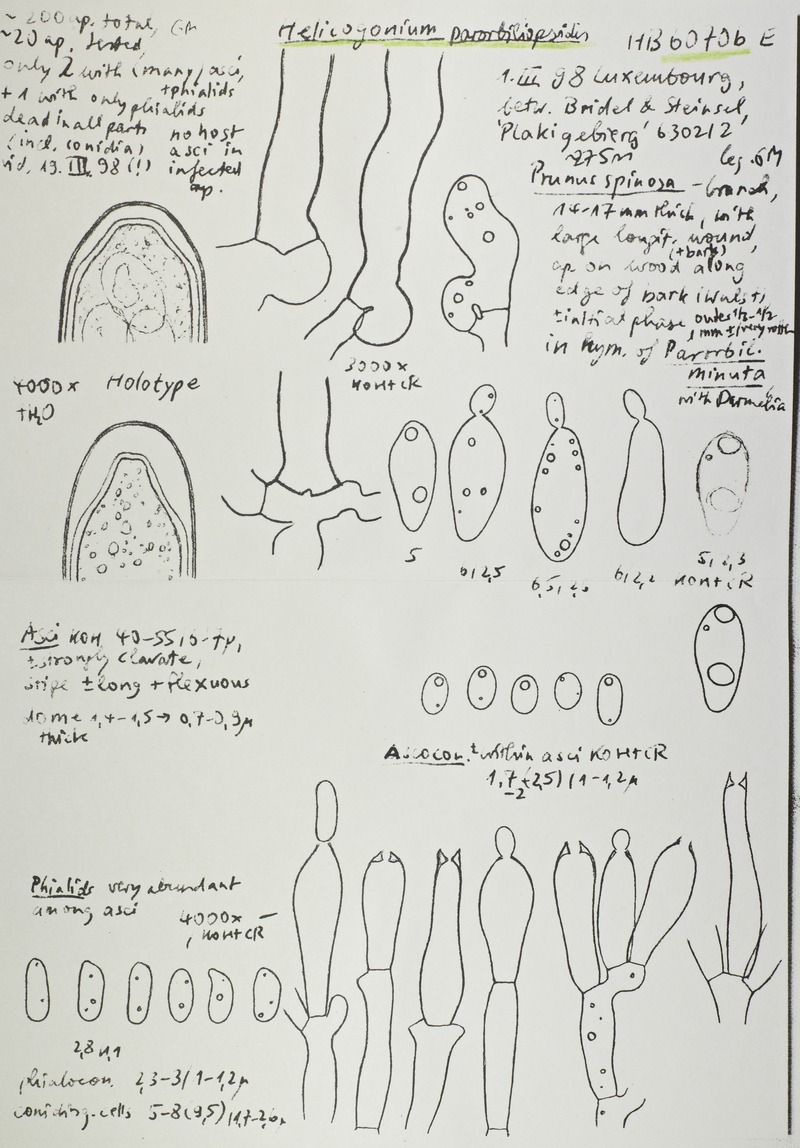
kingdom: Fungi
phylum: Ascomycota
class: Leotiomycetes
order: Phacidiales
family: Helicogoniaceae
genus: Helicogonium
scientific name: Helicogonium parorbiliopsidis
